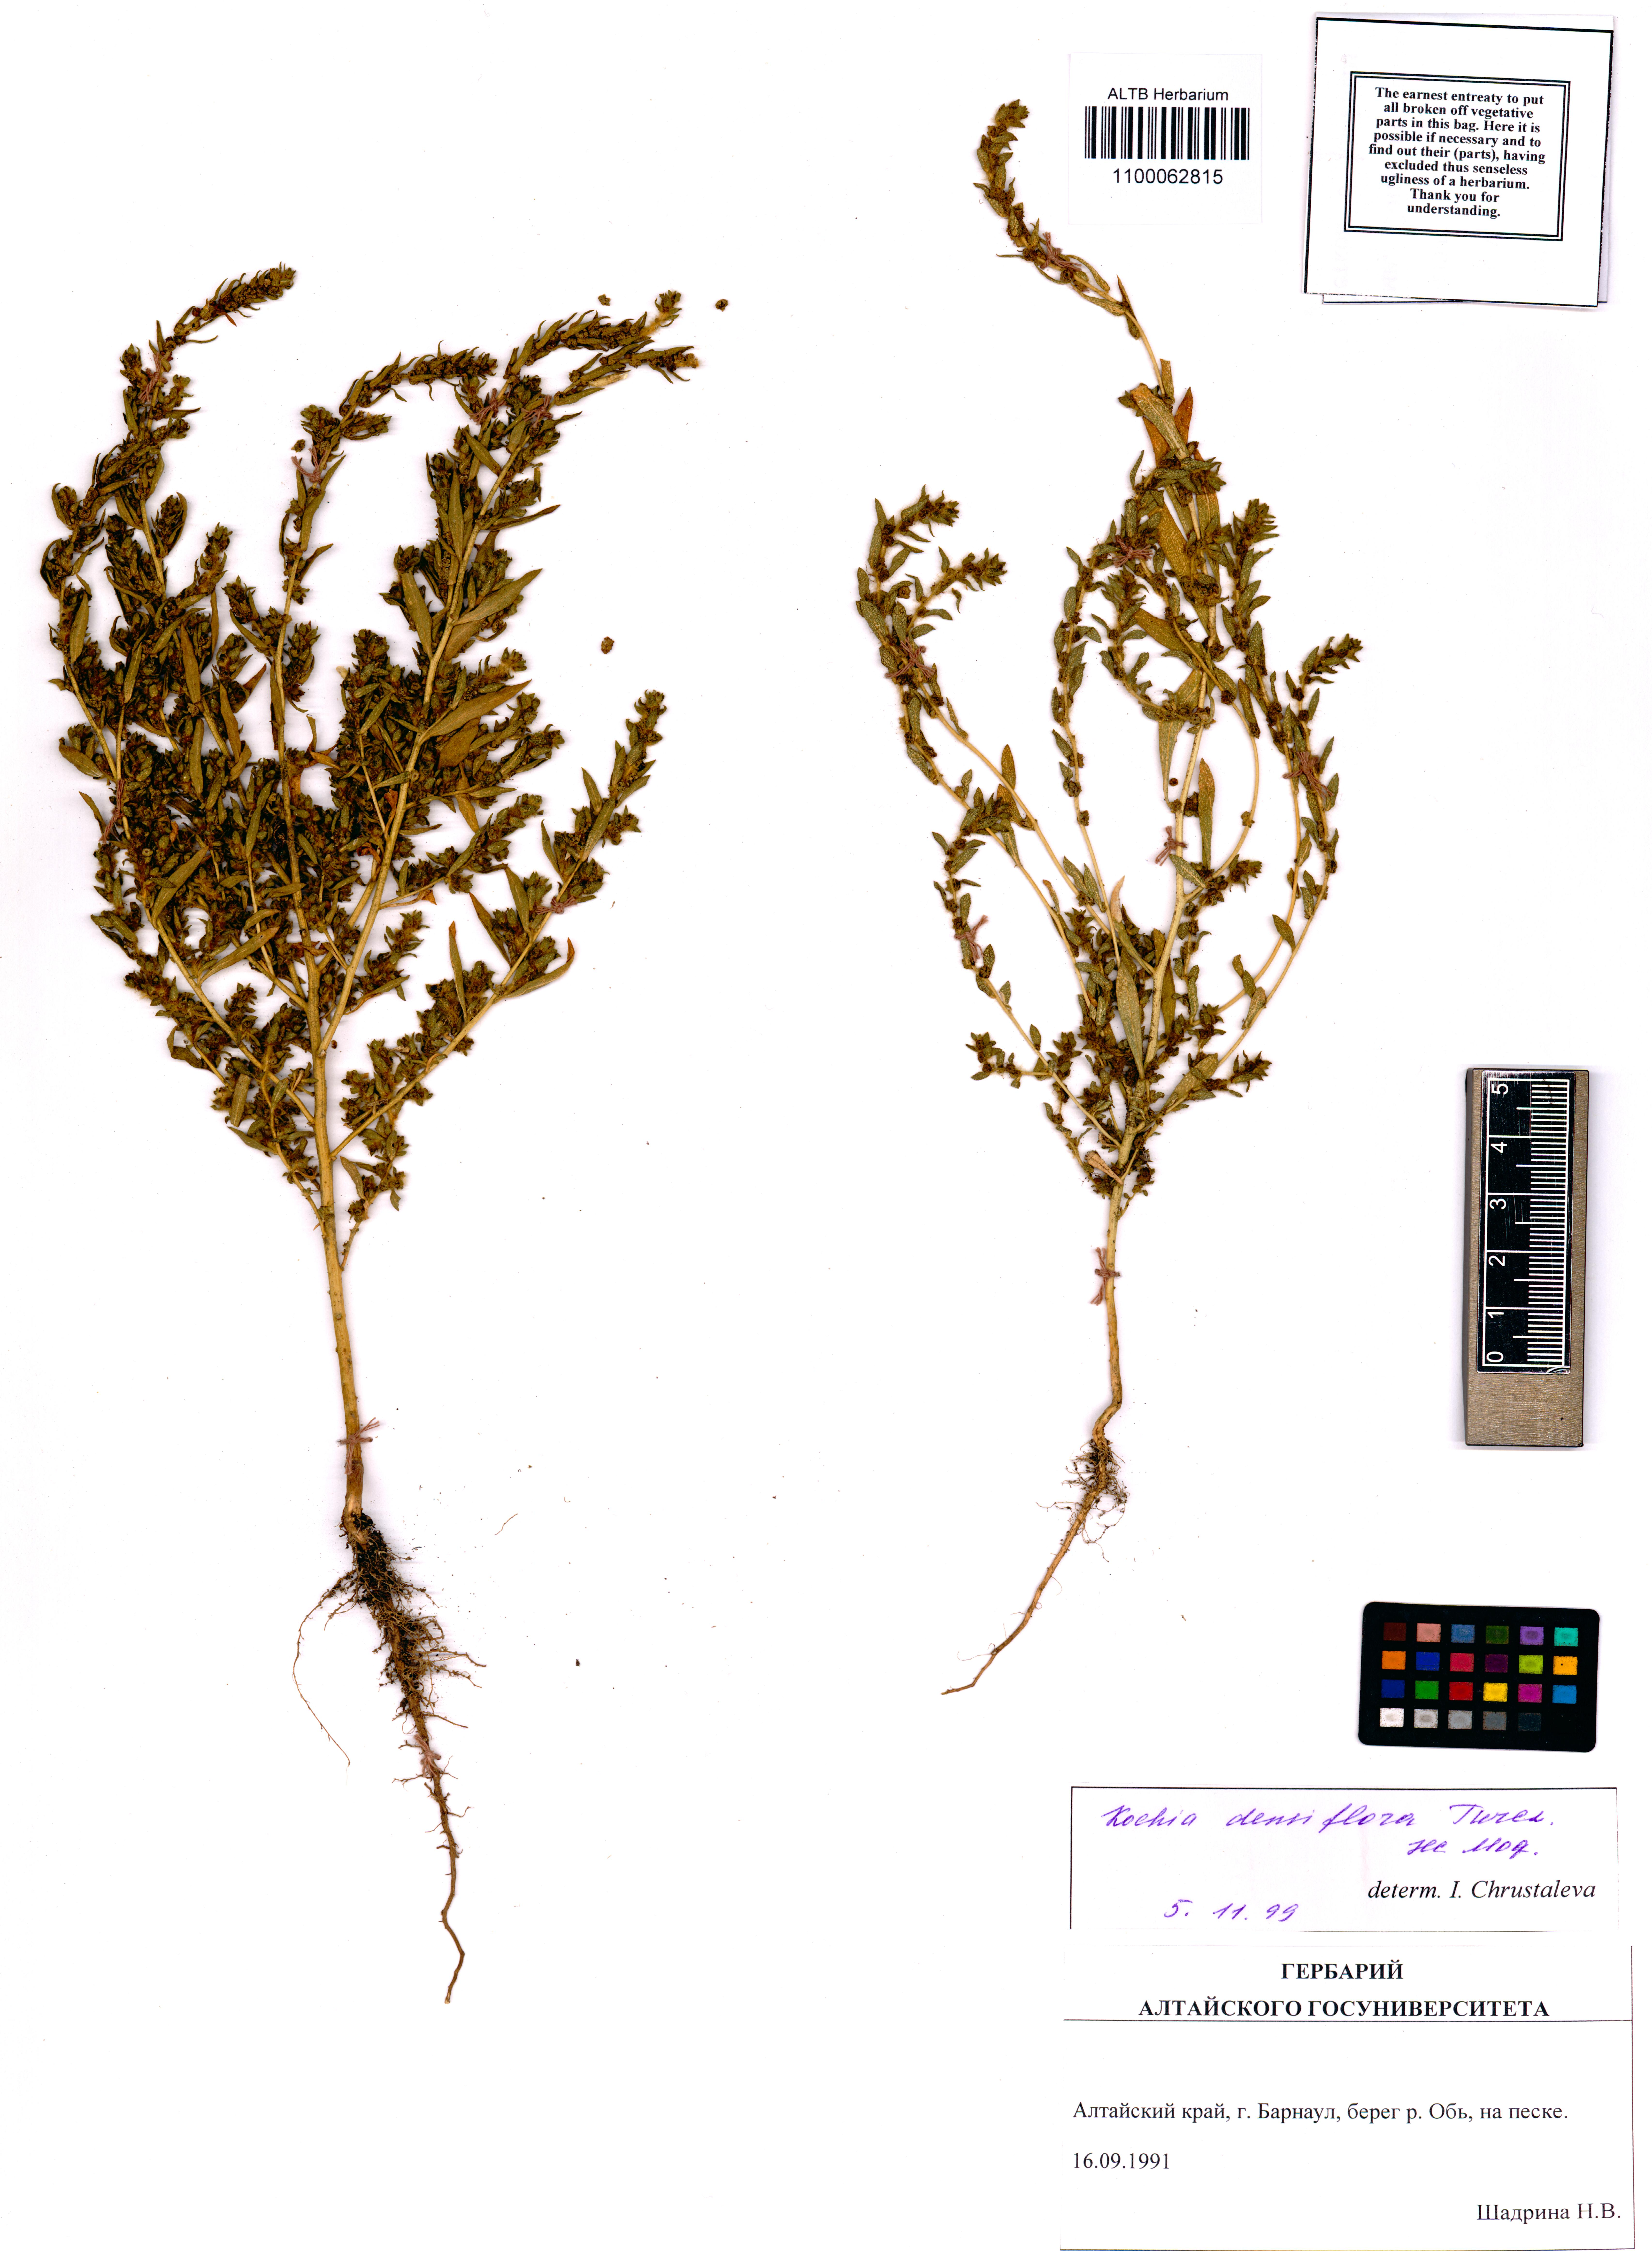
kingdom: Plantae
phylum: Tracheophyta
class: Magnoliopsida
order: Caryophyllales
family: Amaranthaceae
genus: Bassia
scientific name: Bassia scoparia
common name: Belvedere
